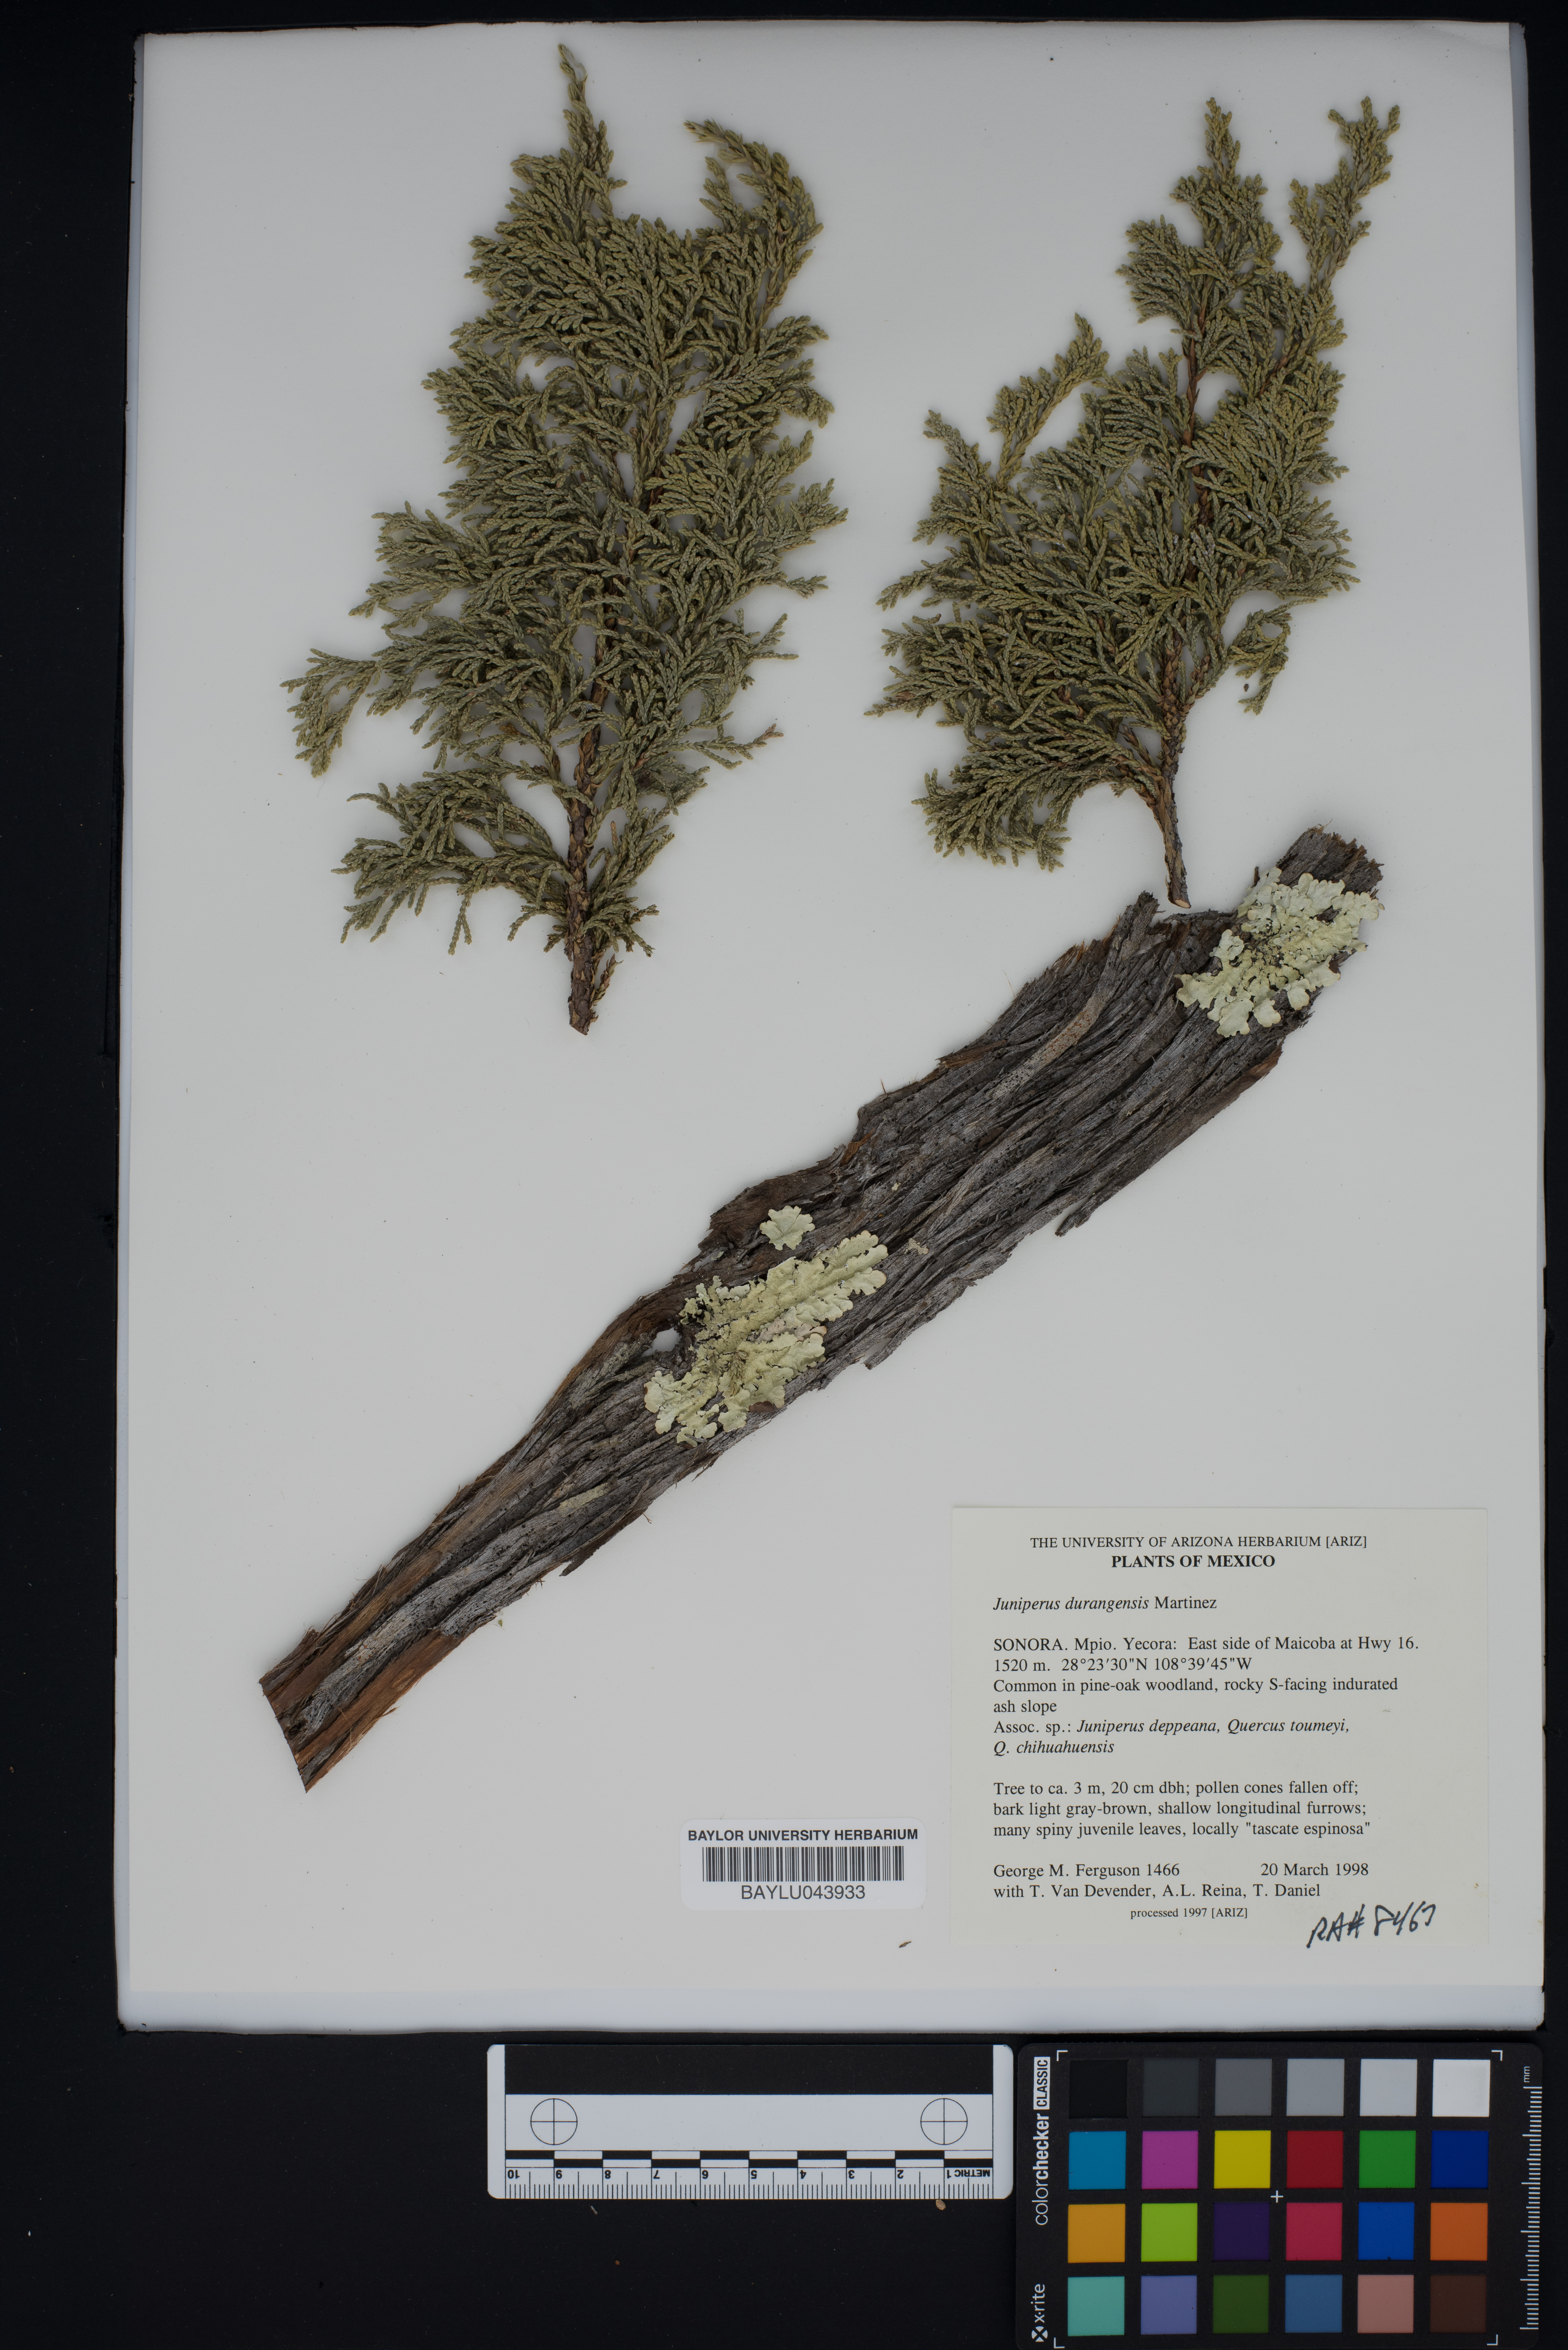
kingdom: Plantae
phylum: Tracheophyta
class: Pinopsida
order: Pinales
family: Cupressaceae
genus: Juniperus
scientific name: Juniperus durangensis
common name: Durango juniper
